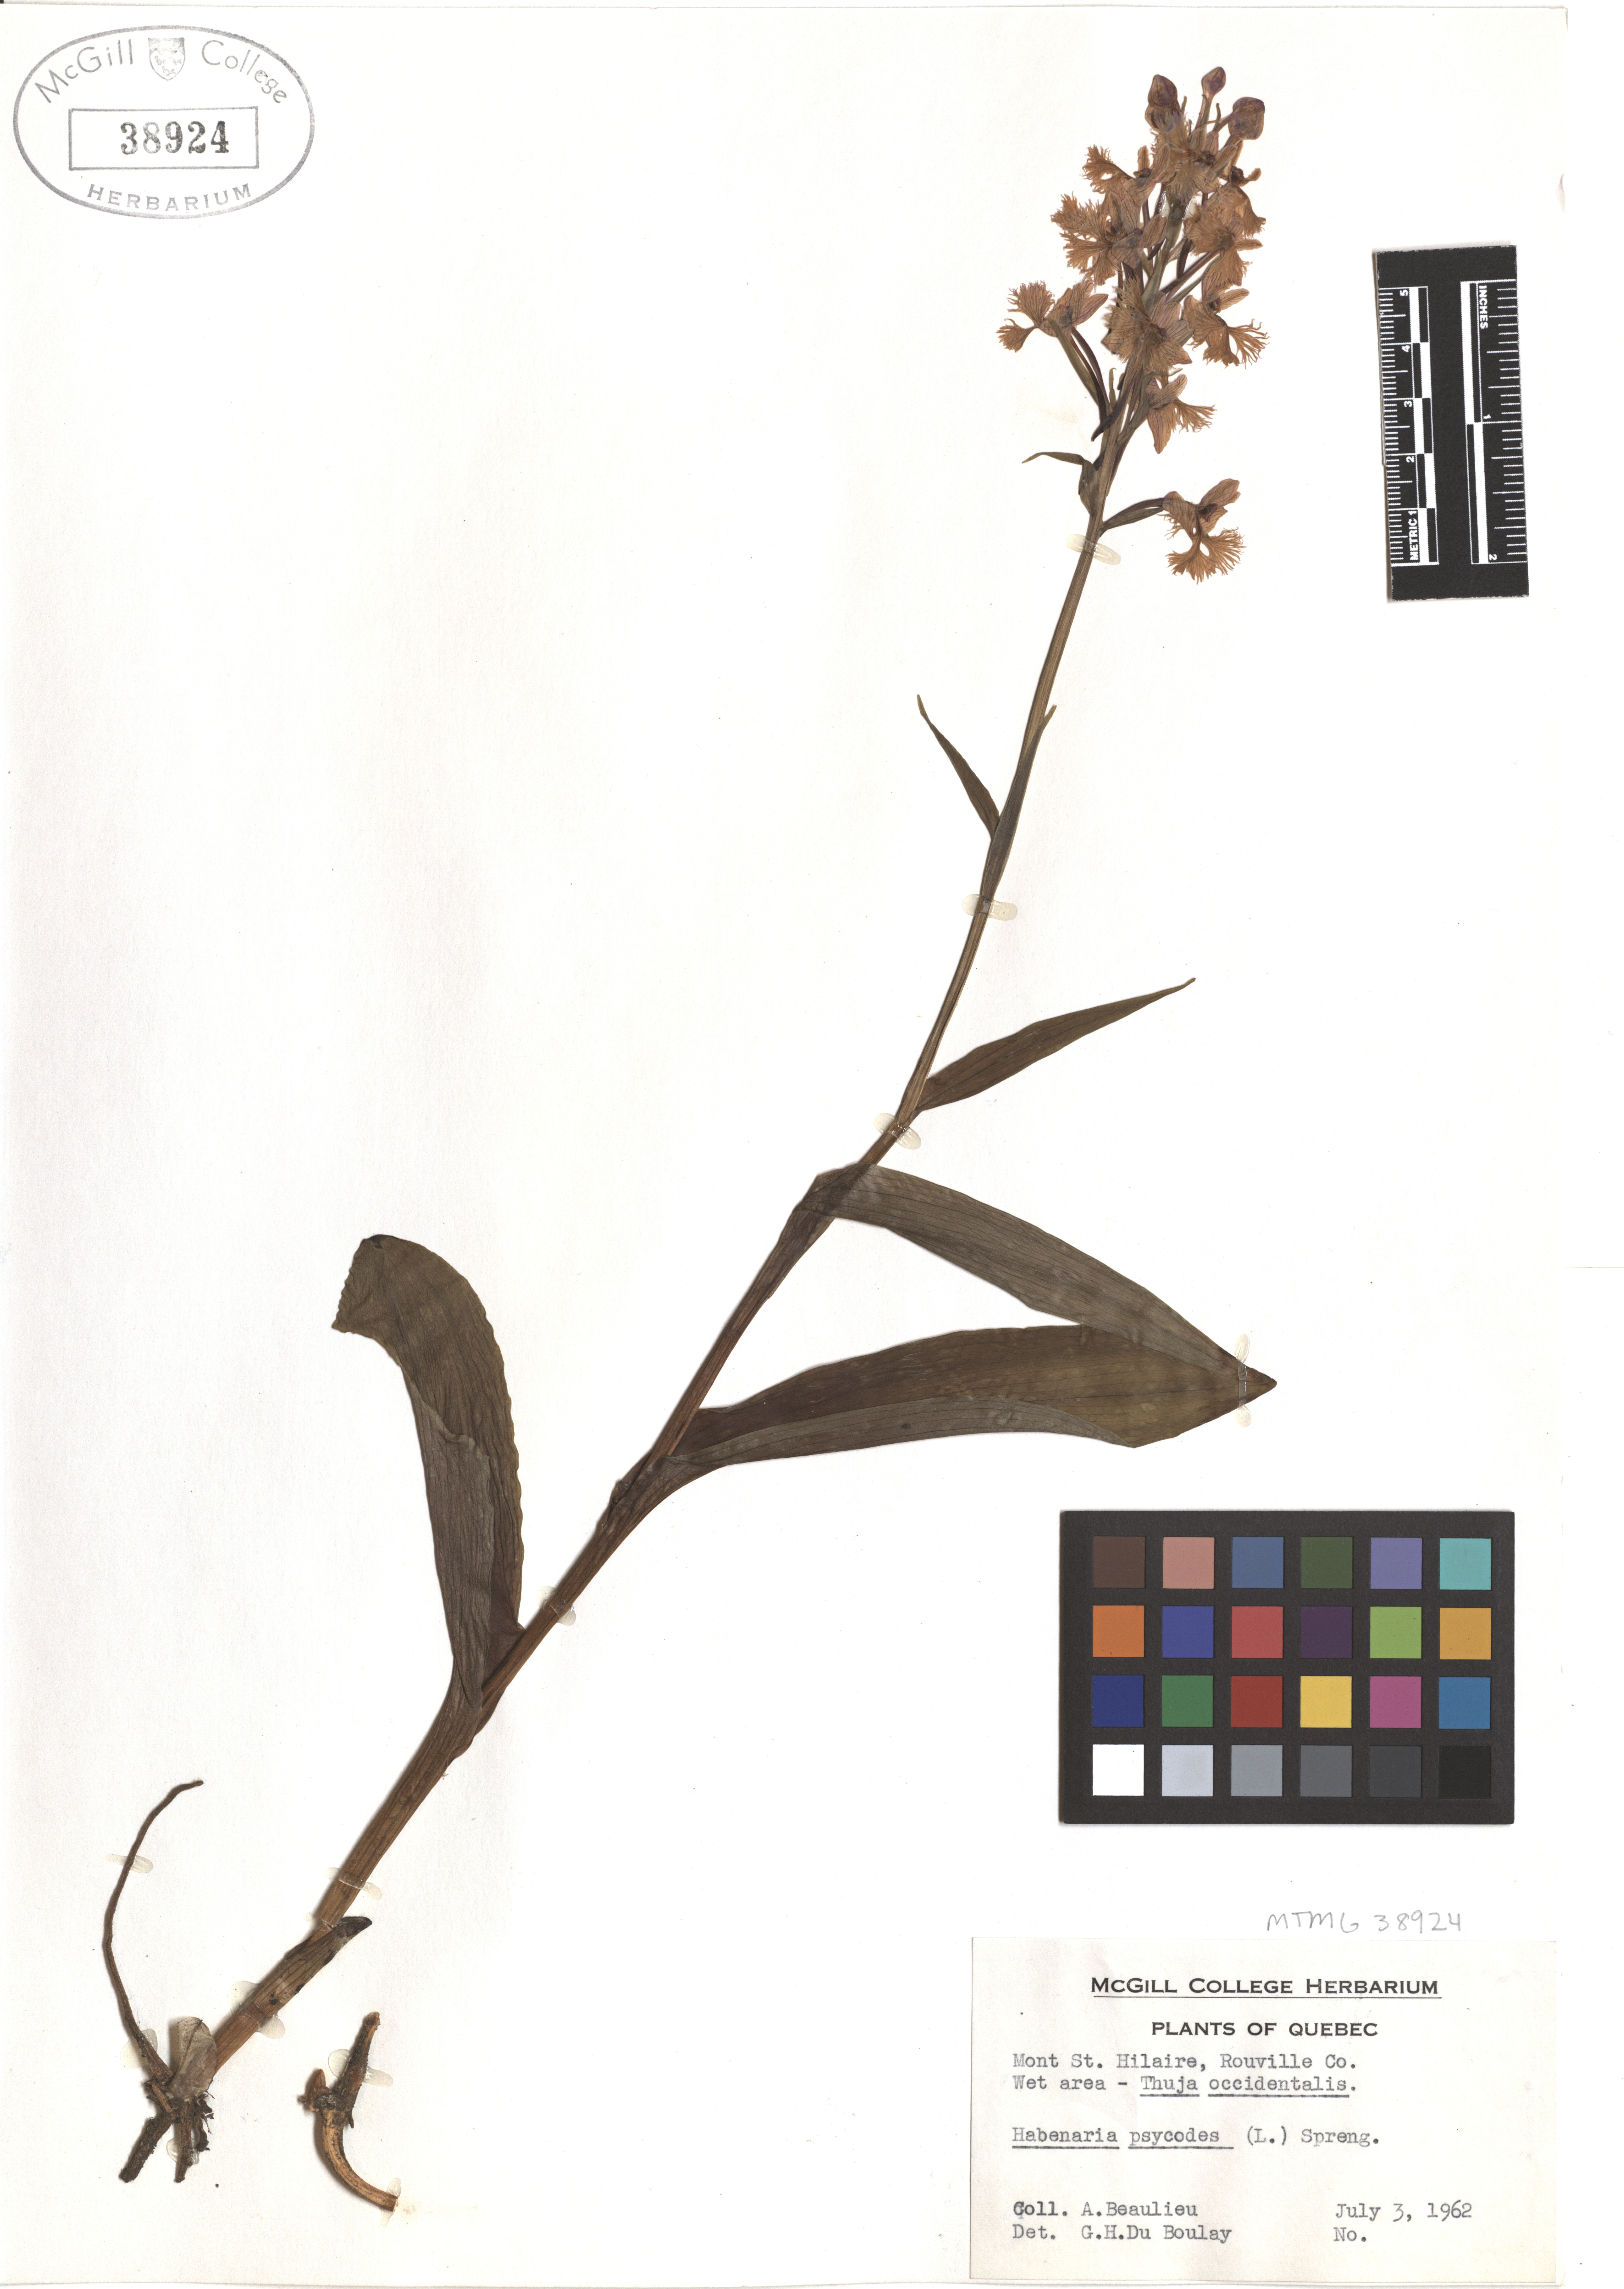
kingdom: Plantae
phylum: Tracheophyta
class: Liliopsida
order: Asparagales
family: Orchidaceae
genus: Platanthera
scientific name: Platanthera psycodes
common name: Lesser purple fringed orchid
